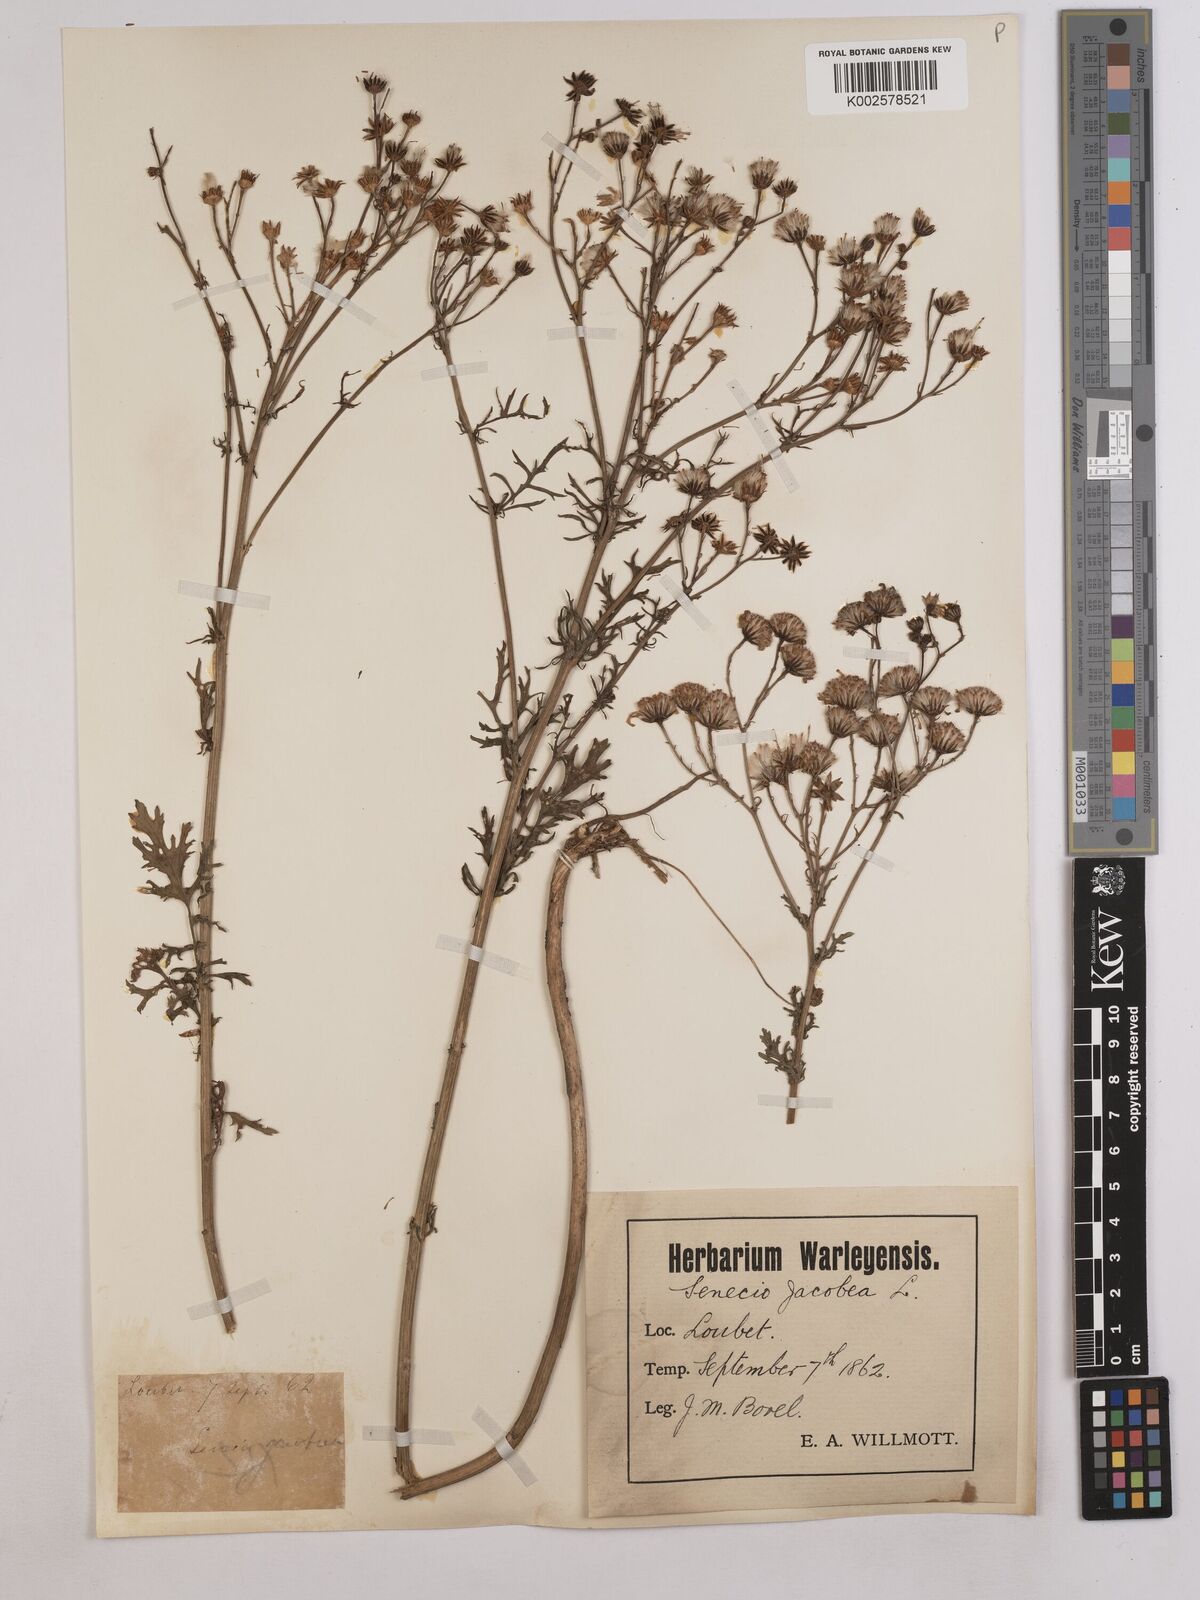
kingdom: Plantae
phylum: Tracheophyta
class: Magnoliopsida
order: Asterales
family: Asteraceae
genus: Jacobaea
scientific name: Jacobaea vulgaris
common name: Stinking willie
